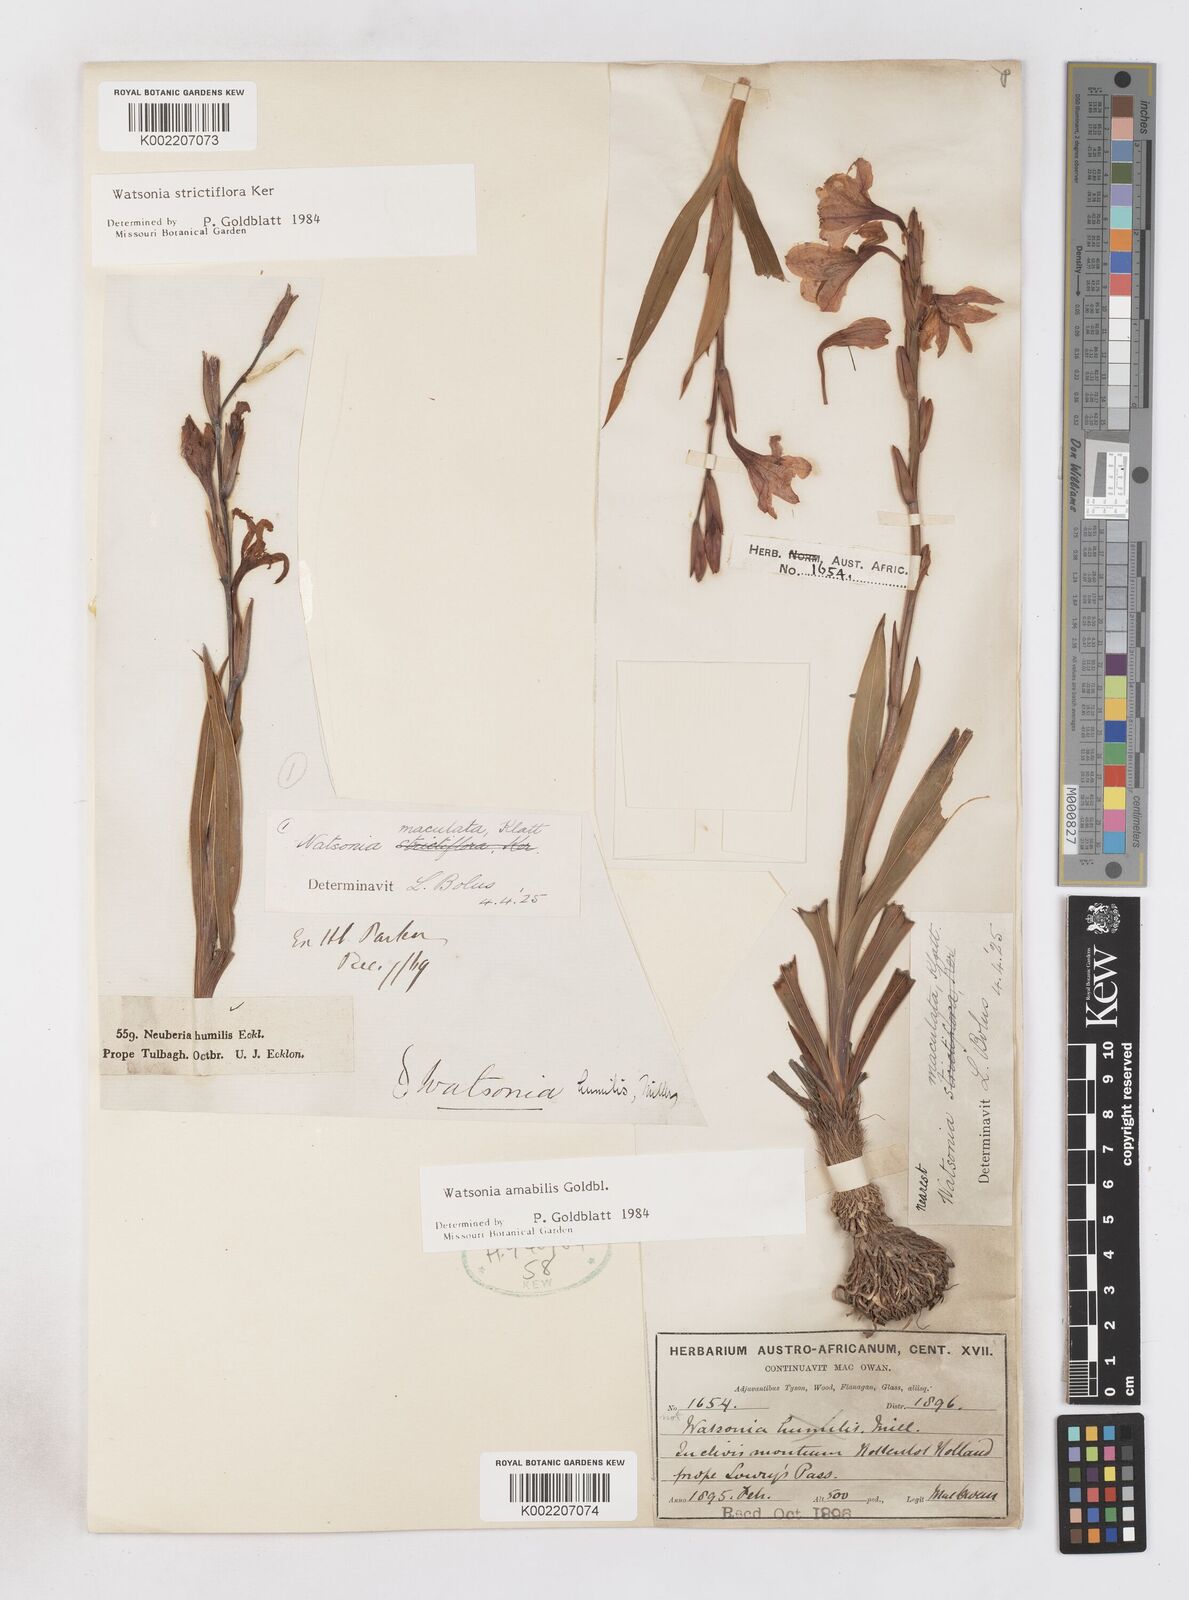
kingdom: Plantae
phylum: Tracheophyta
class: Liliopsida
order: Asparagales
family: Iridaceae
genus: Watsonia
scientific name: Watsonia amabilis
